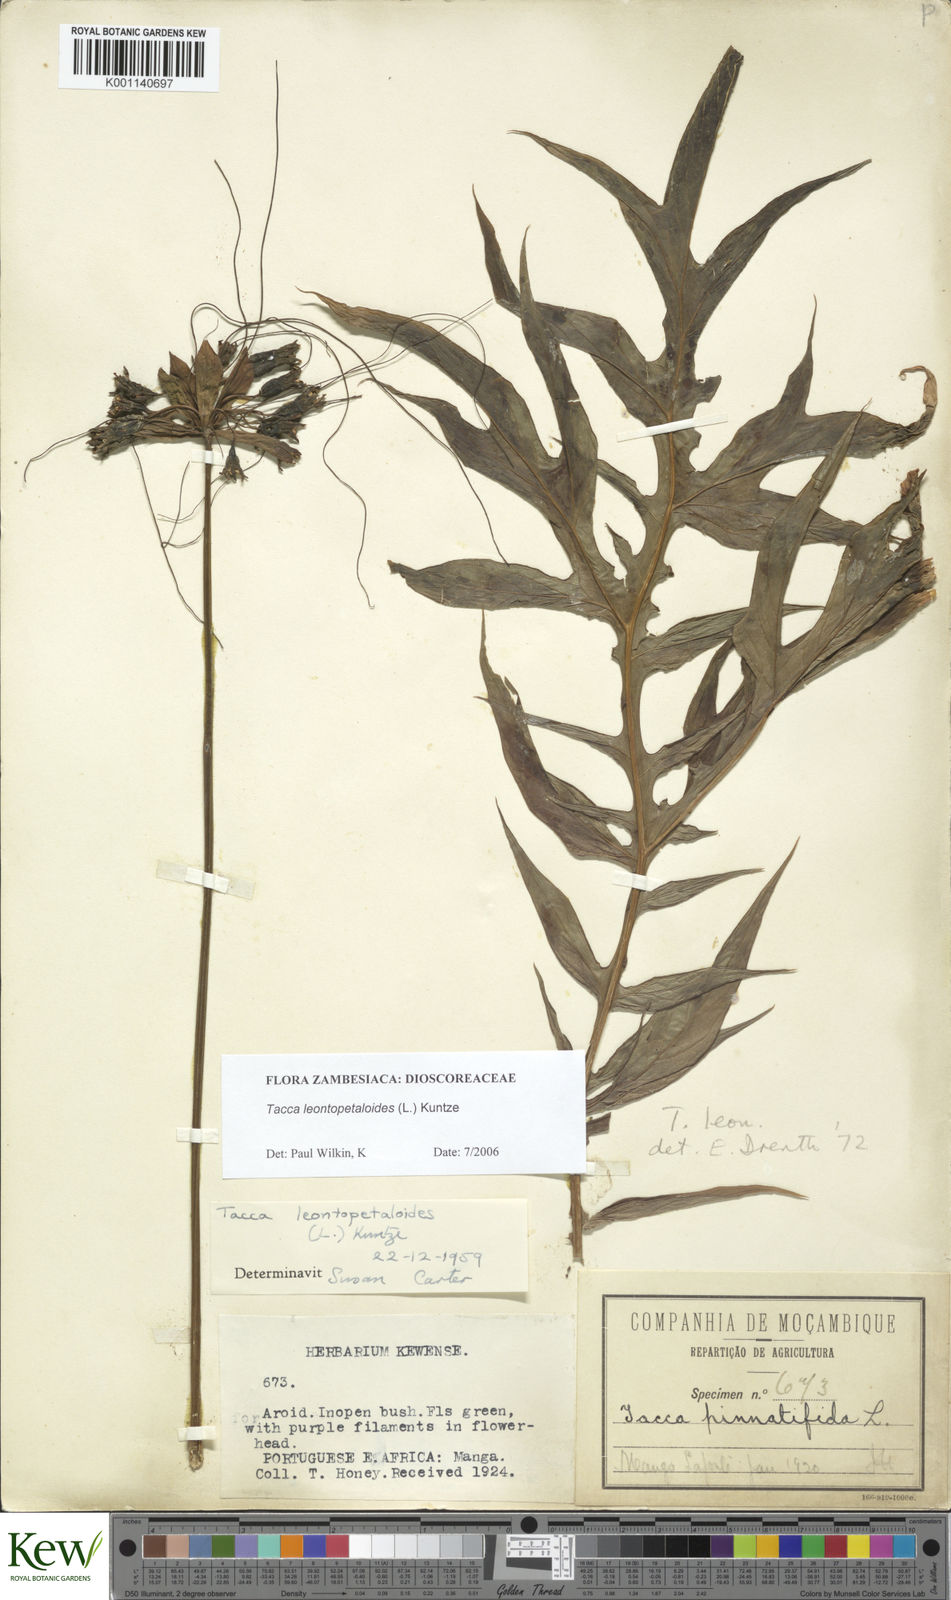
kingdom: Plantae
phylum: Tracheophyta
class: Liliopsida
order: Dioscoreales
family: Dioscoreaceae
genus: Tacca
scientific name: Tacca leontopetaloides
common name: Arrowroot
